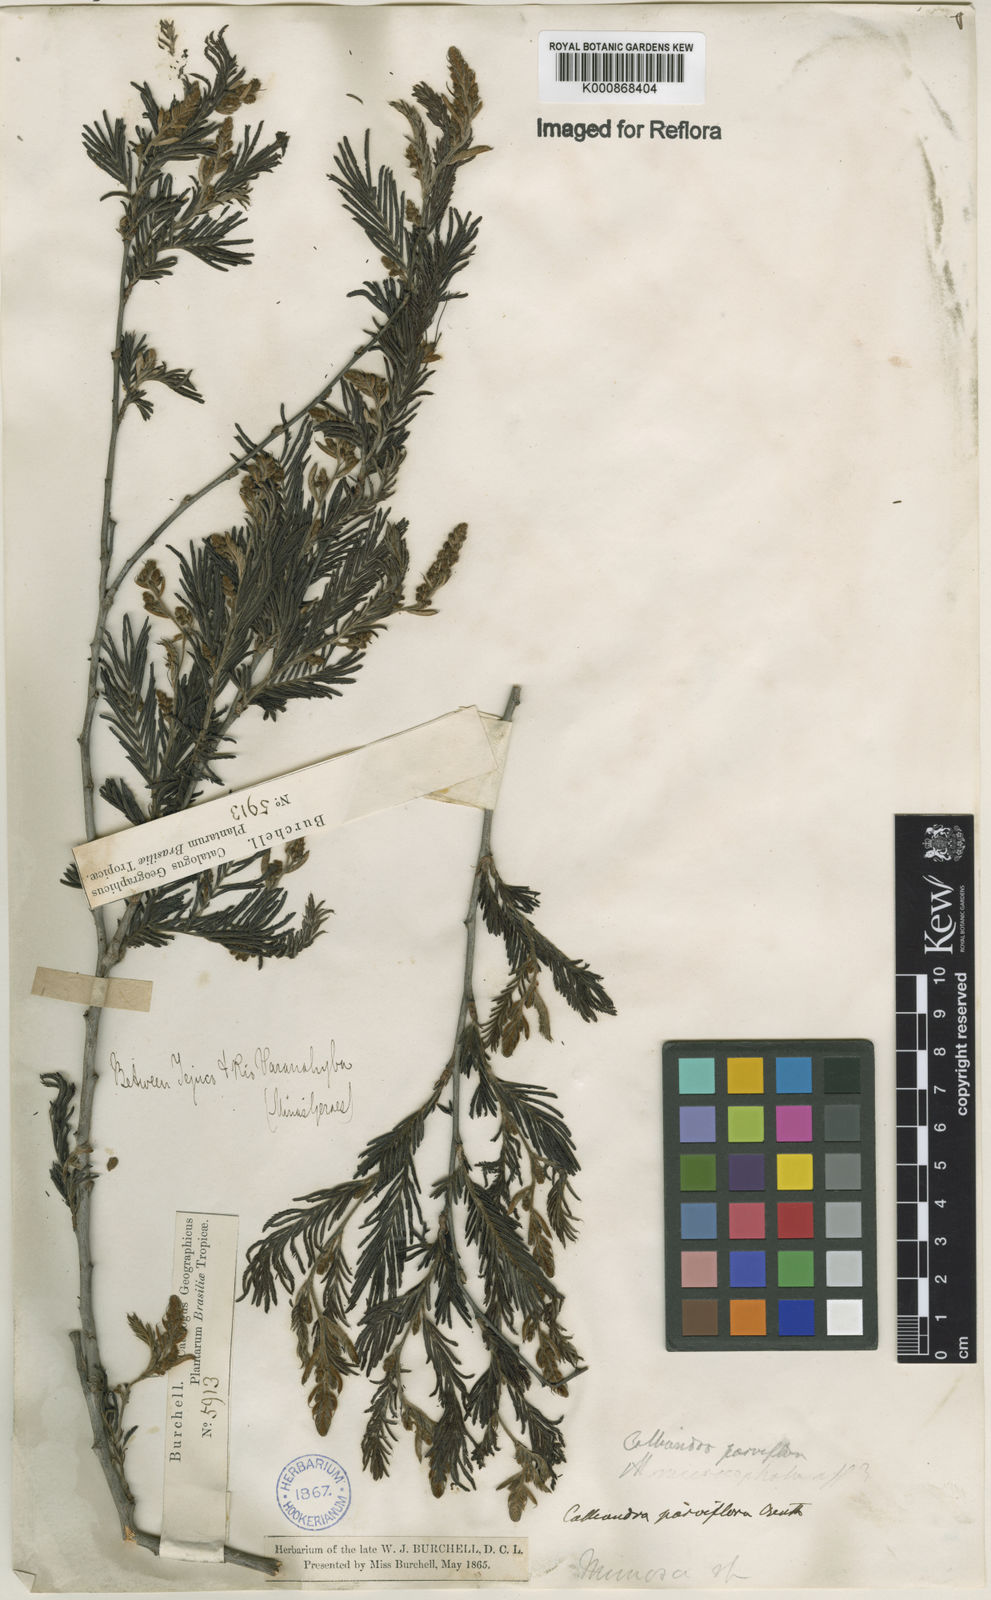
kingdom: Plantae
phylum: Tracheophyta
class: Magnoliopsida
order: Fabales
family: Fabaceae
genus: Calliandra
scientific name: Calliandra parviflora
